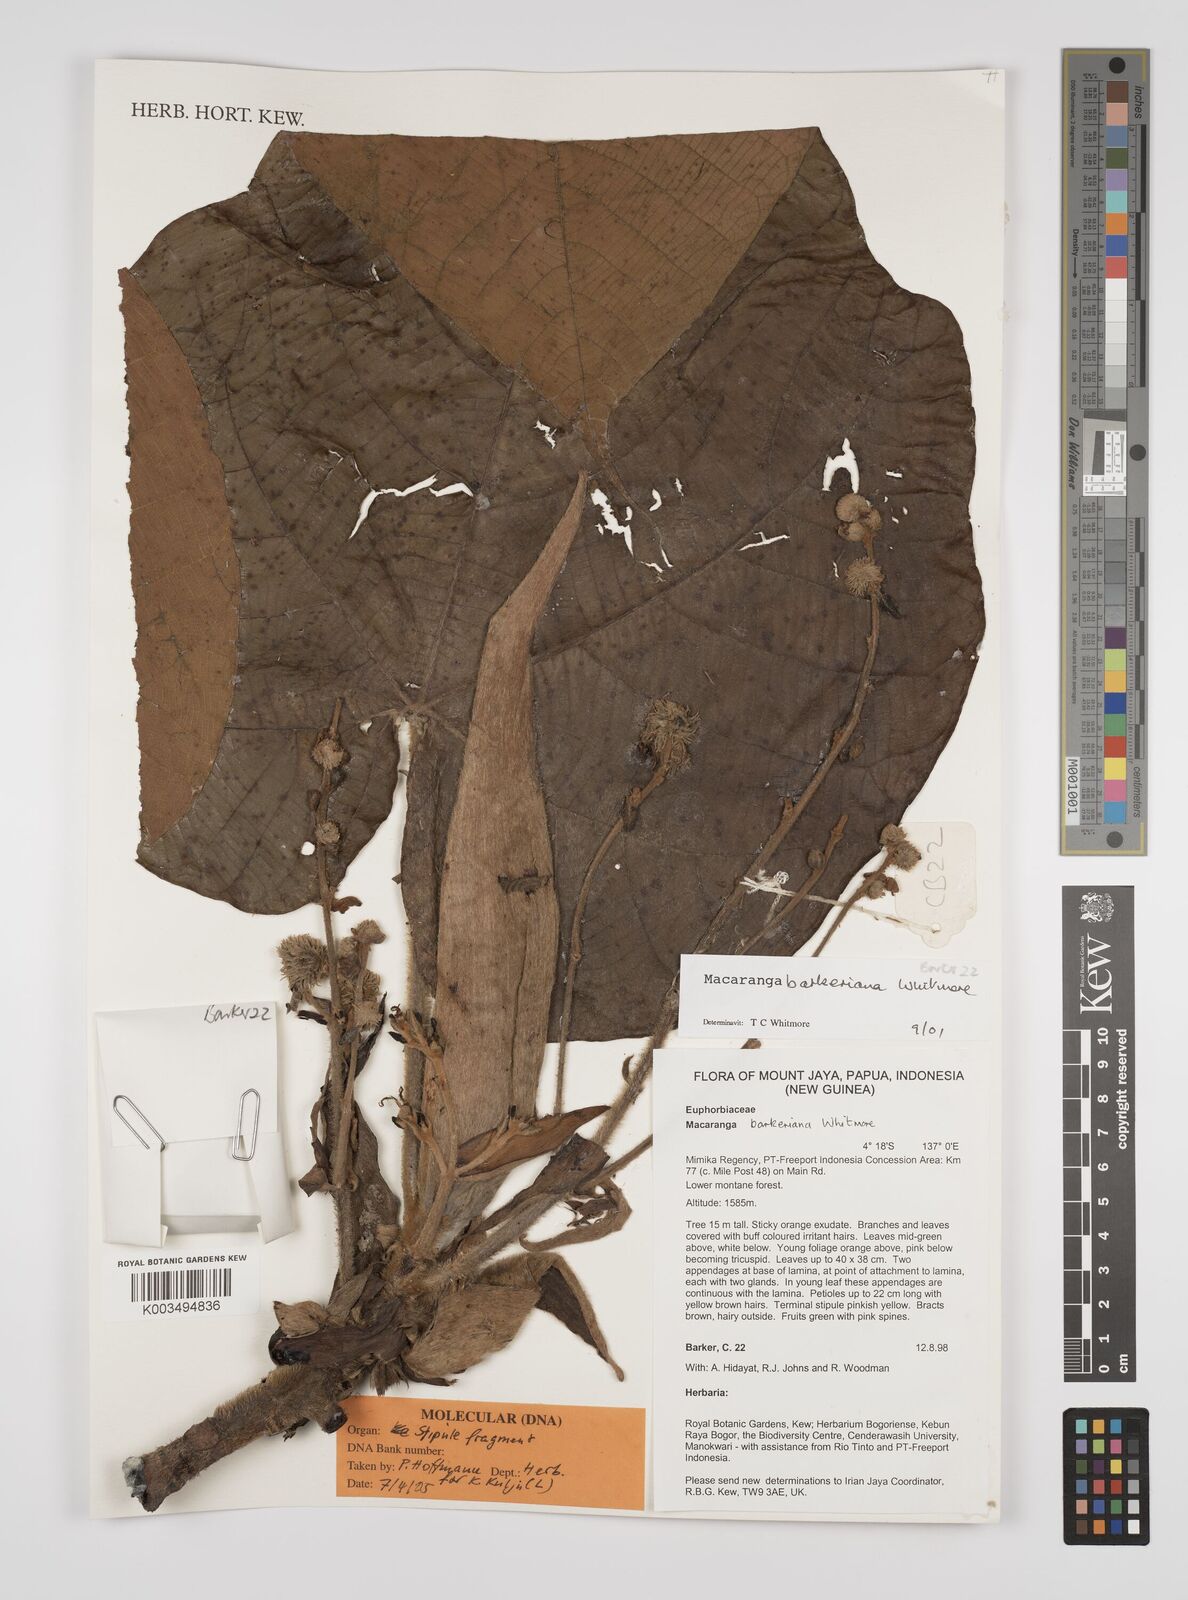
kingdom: Plantae
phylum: Tracheophyta
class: Magnoliopsida
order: Malpighiales
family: Euphorbiaceae
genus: Macaranga
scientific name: Macaranga barkeriana
